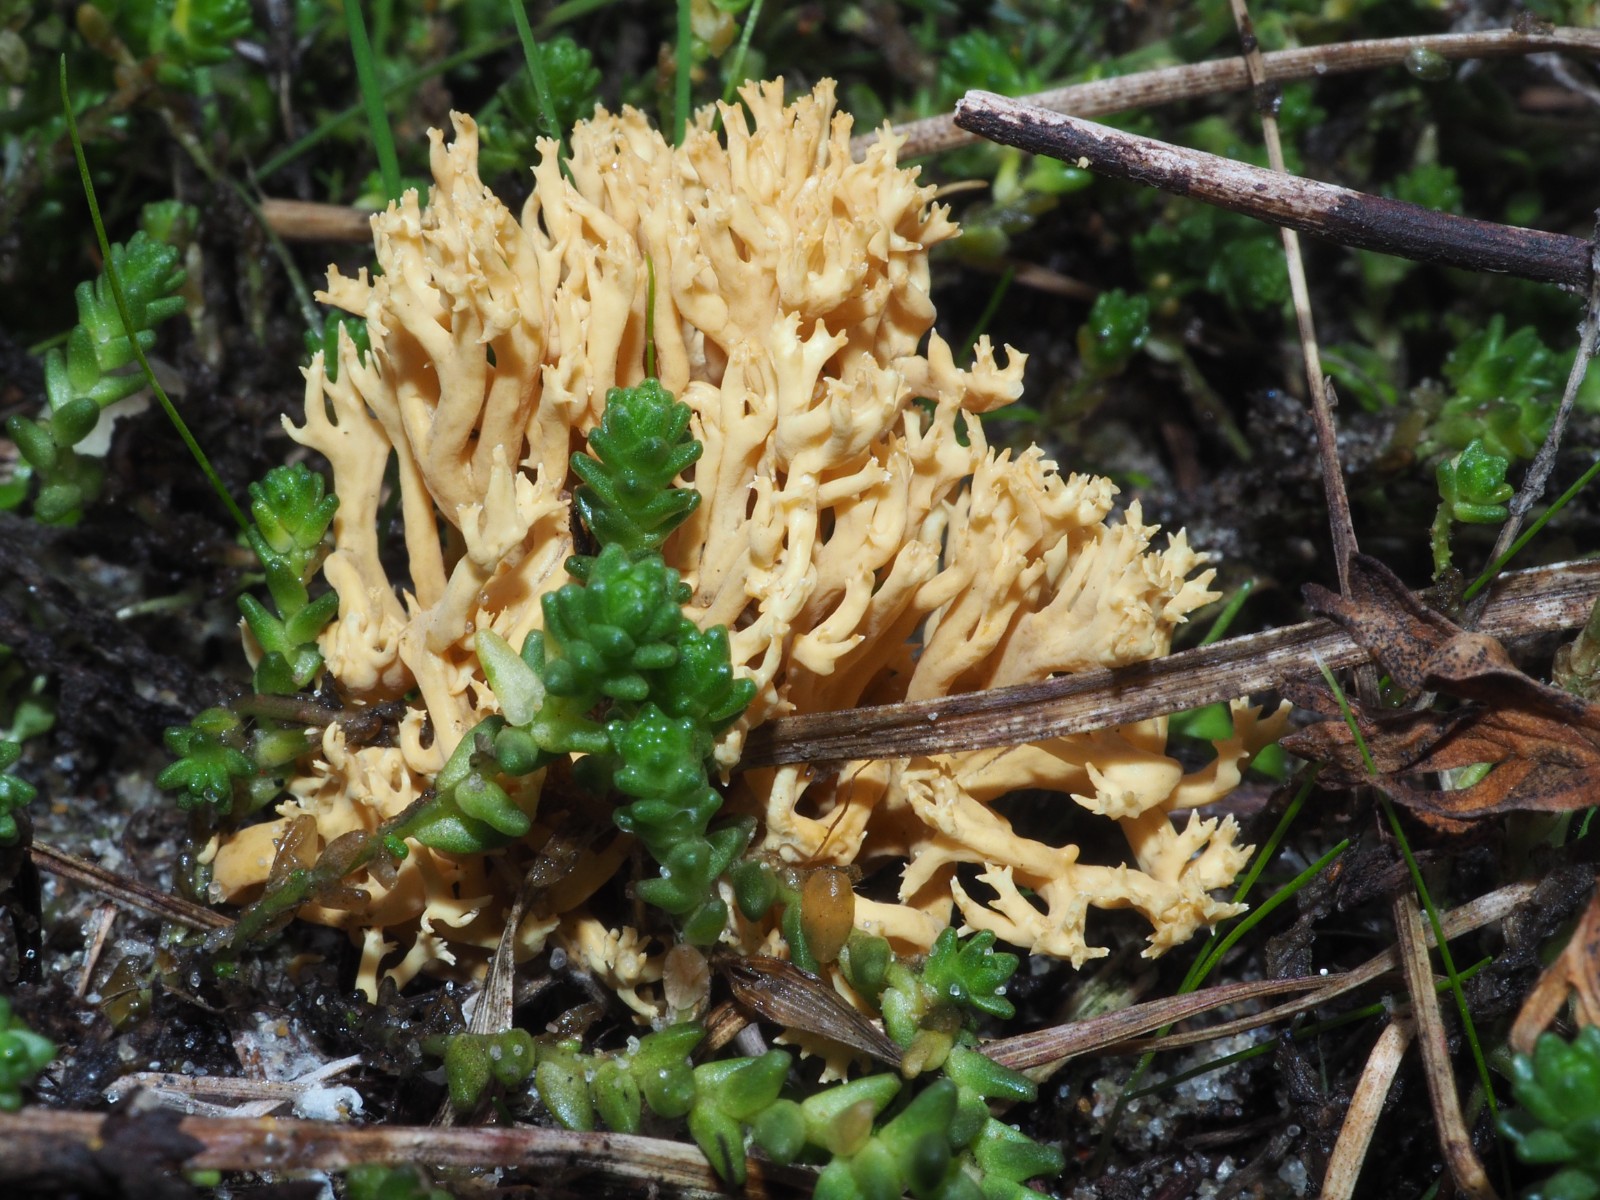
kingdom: Fungi
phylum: Basidiomycota
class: Agaricomycetes
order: Gomphales
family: Gomphaceae
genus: Phaeoclavulina
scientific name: Phaeoclavulina flaccida
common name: spinkel koralsvamp
